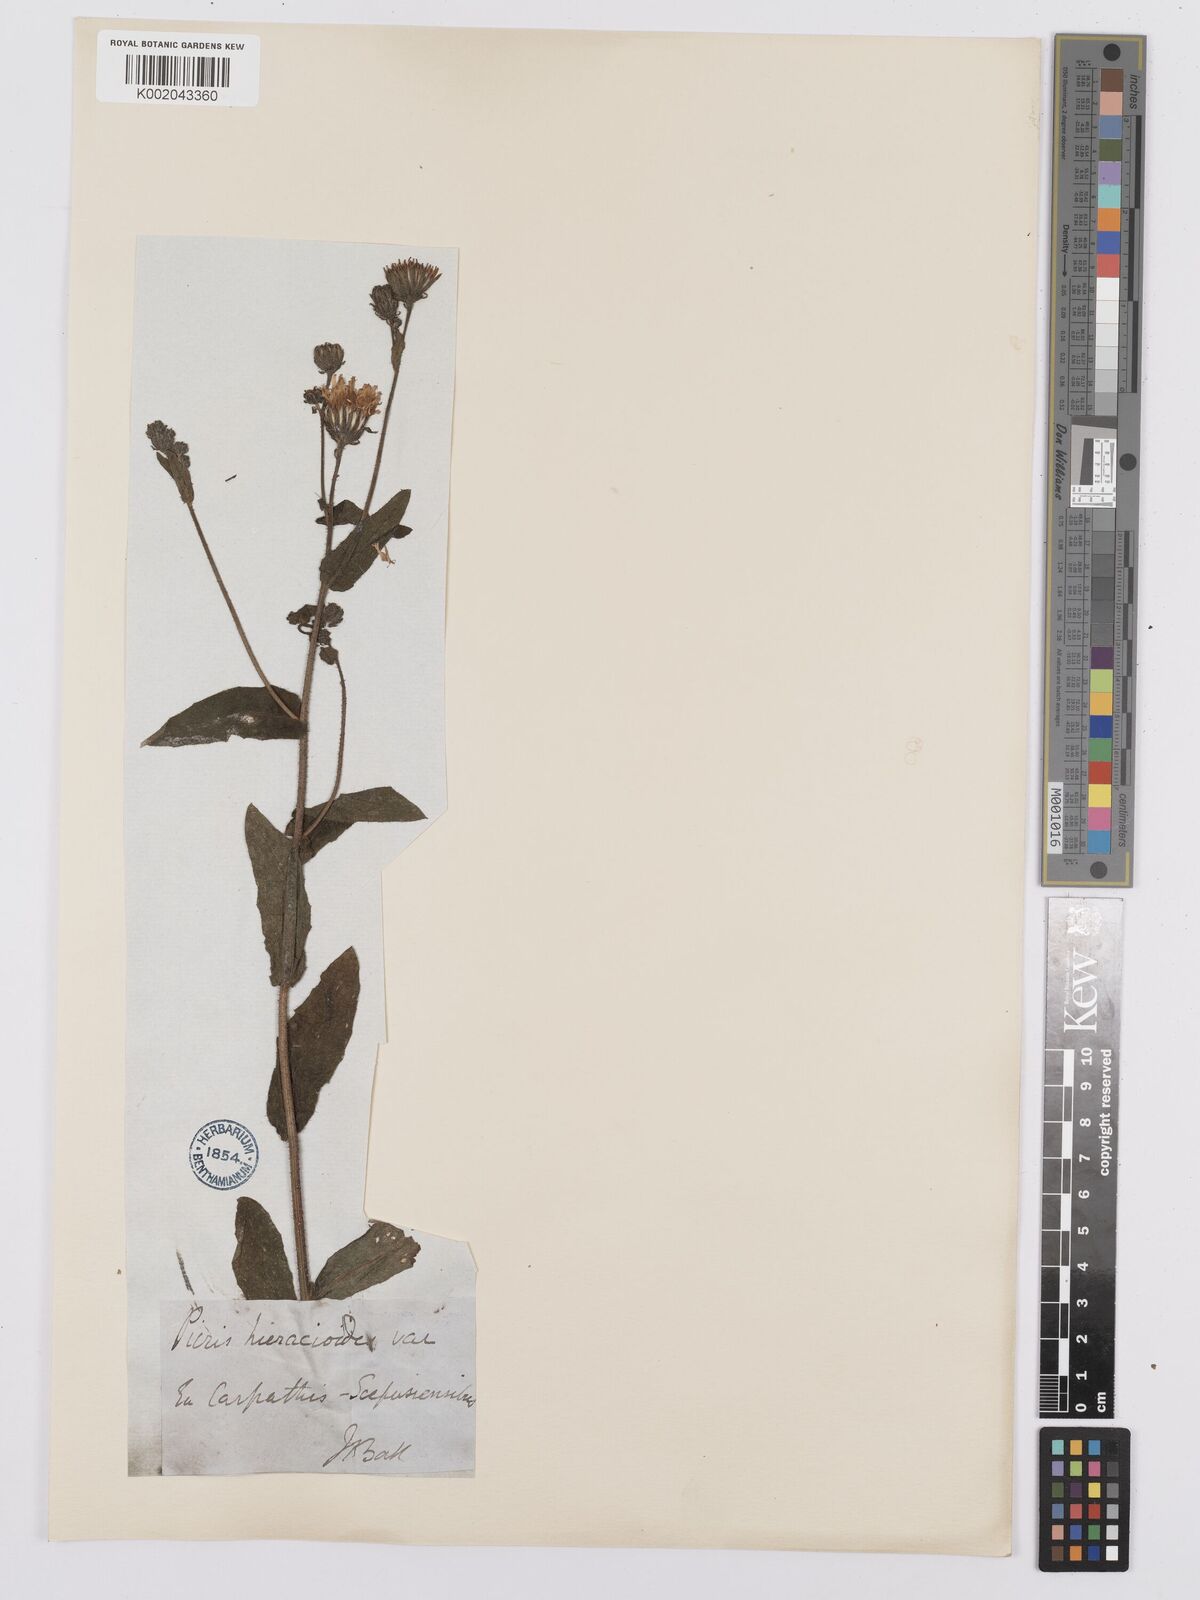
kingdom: Plantae
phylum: Tracheophyta
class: Magnoliopsida
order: Asterales
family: Asteraceae
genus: Picris
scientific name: Picris hieracioides
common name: Hawkweed oxtongue
